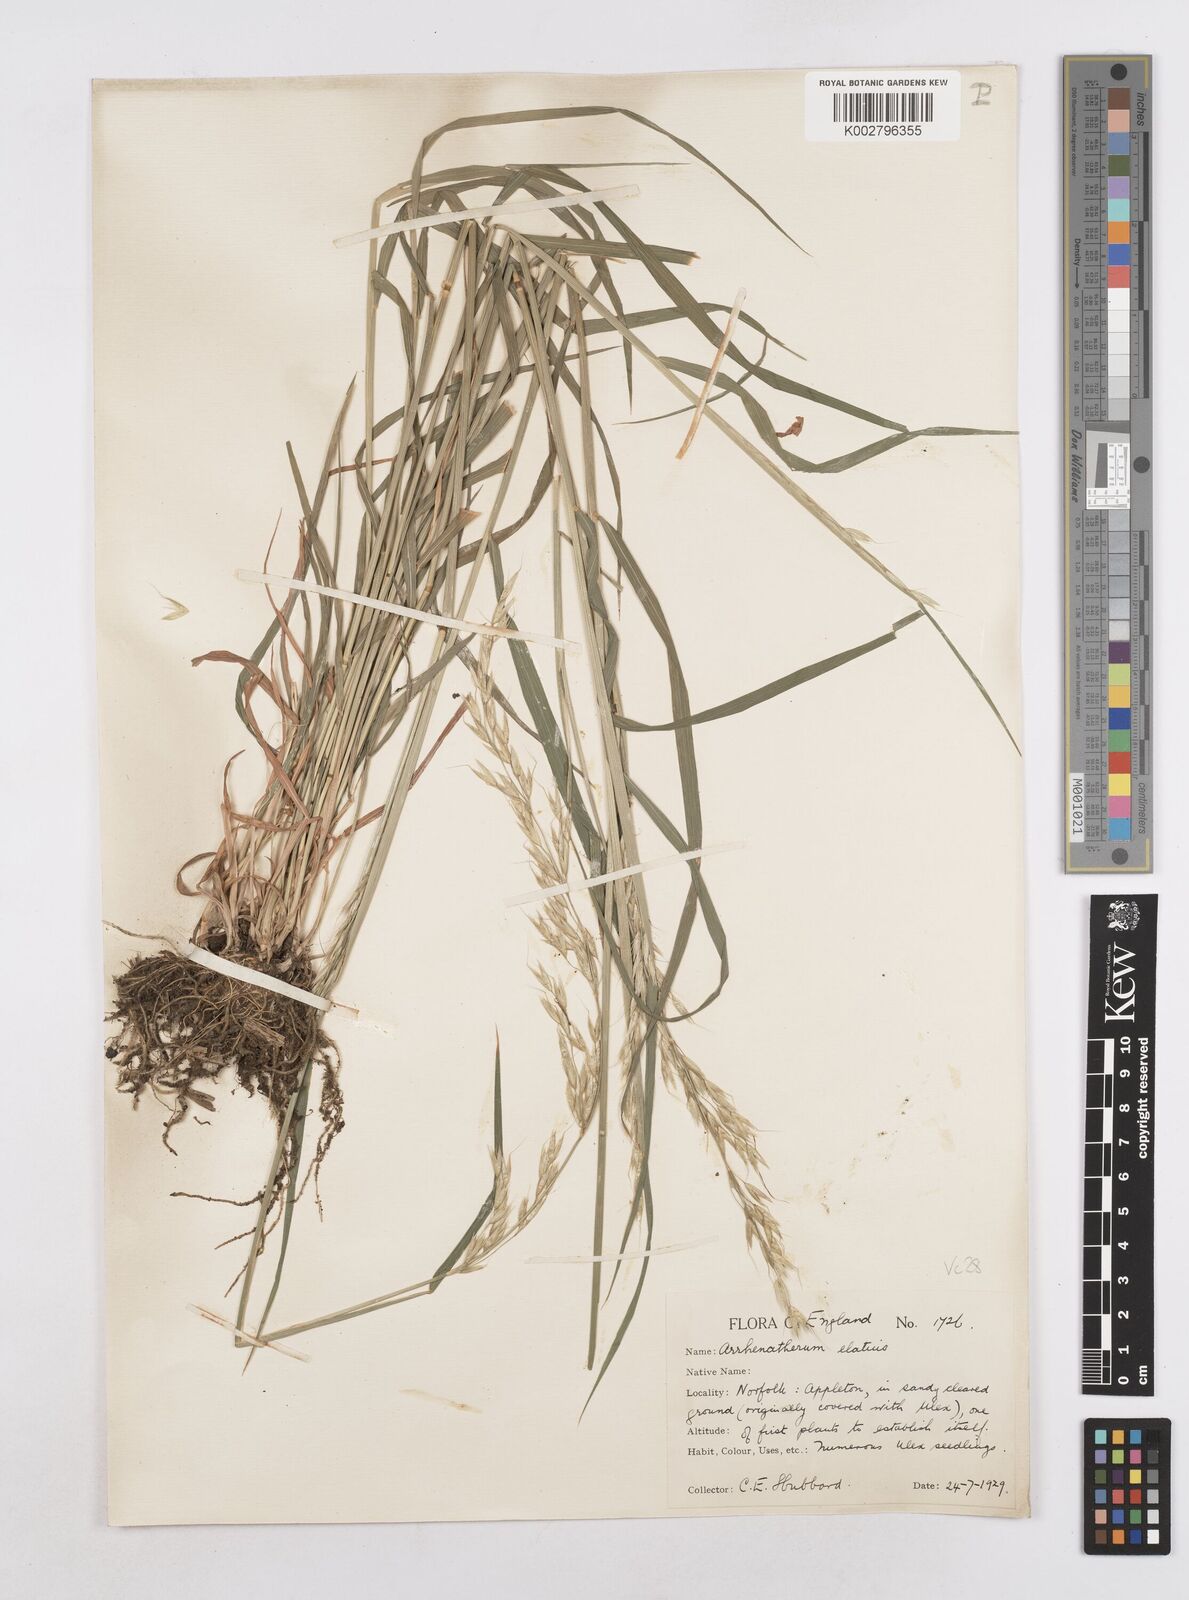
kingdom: Plantae
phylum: Tracheophyta
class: Liliopsida
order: Poales
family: Poaceae
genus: Arrhenatherum
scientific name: Arrhenatherum elatius
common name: Tall oatgrass
